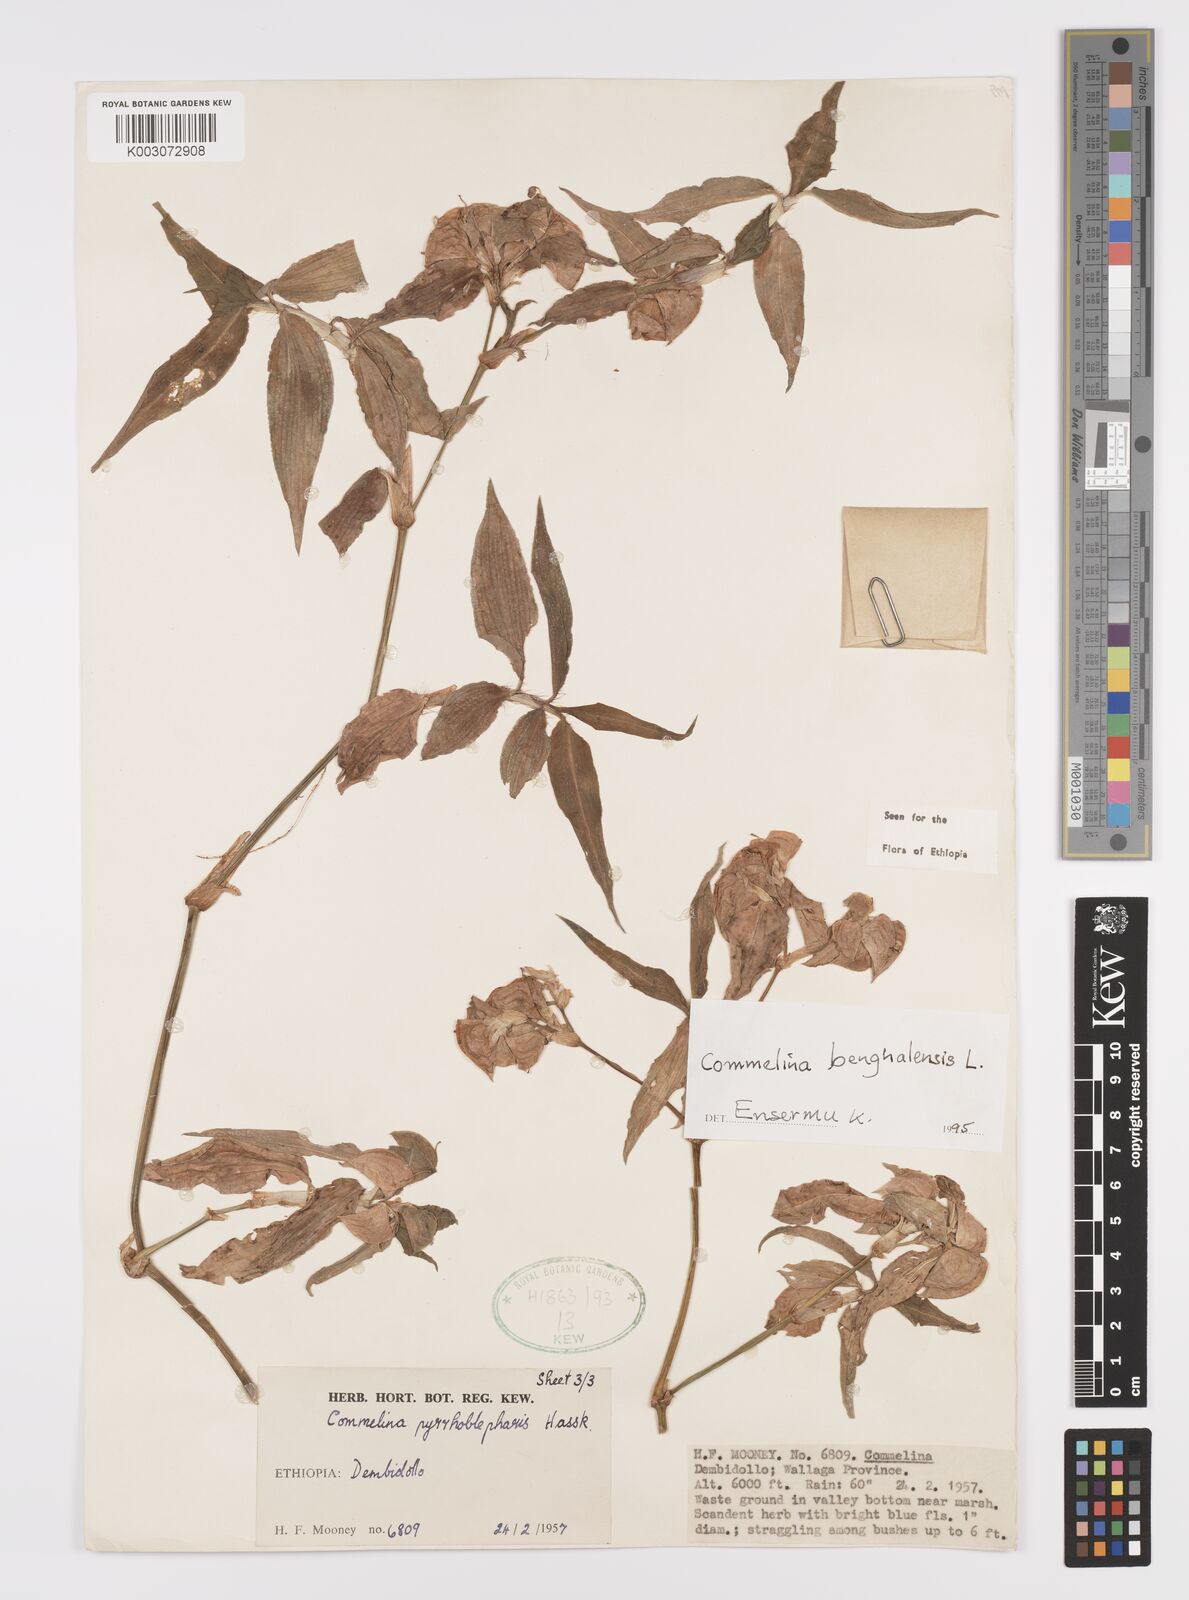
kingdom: Plantae
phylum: Tracheophyta
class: Liliopsida
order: Commelinales
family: Commelinaceae
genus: Commelina
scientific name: Commelina benghalensis
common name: Jio
